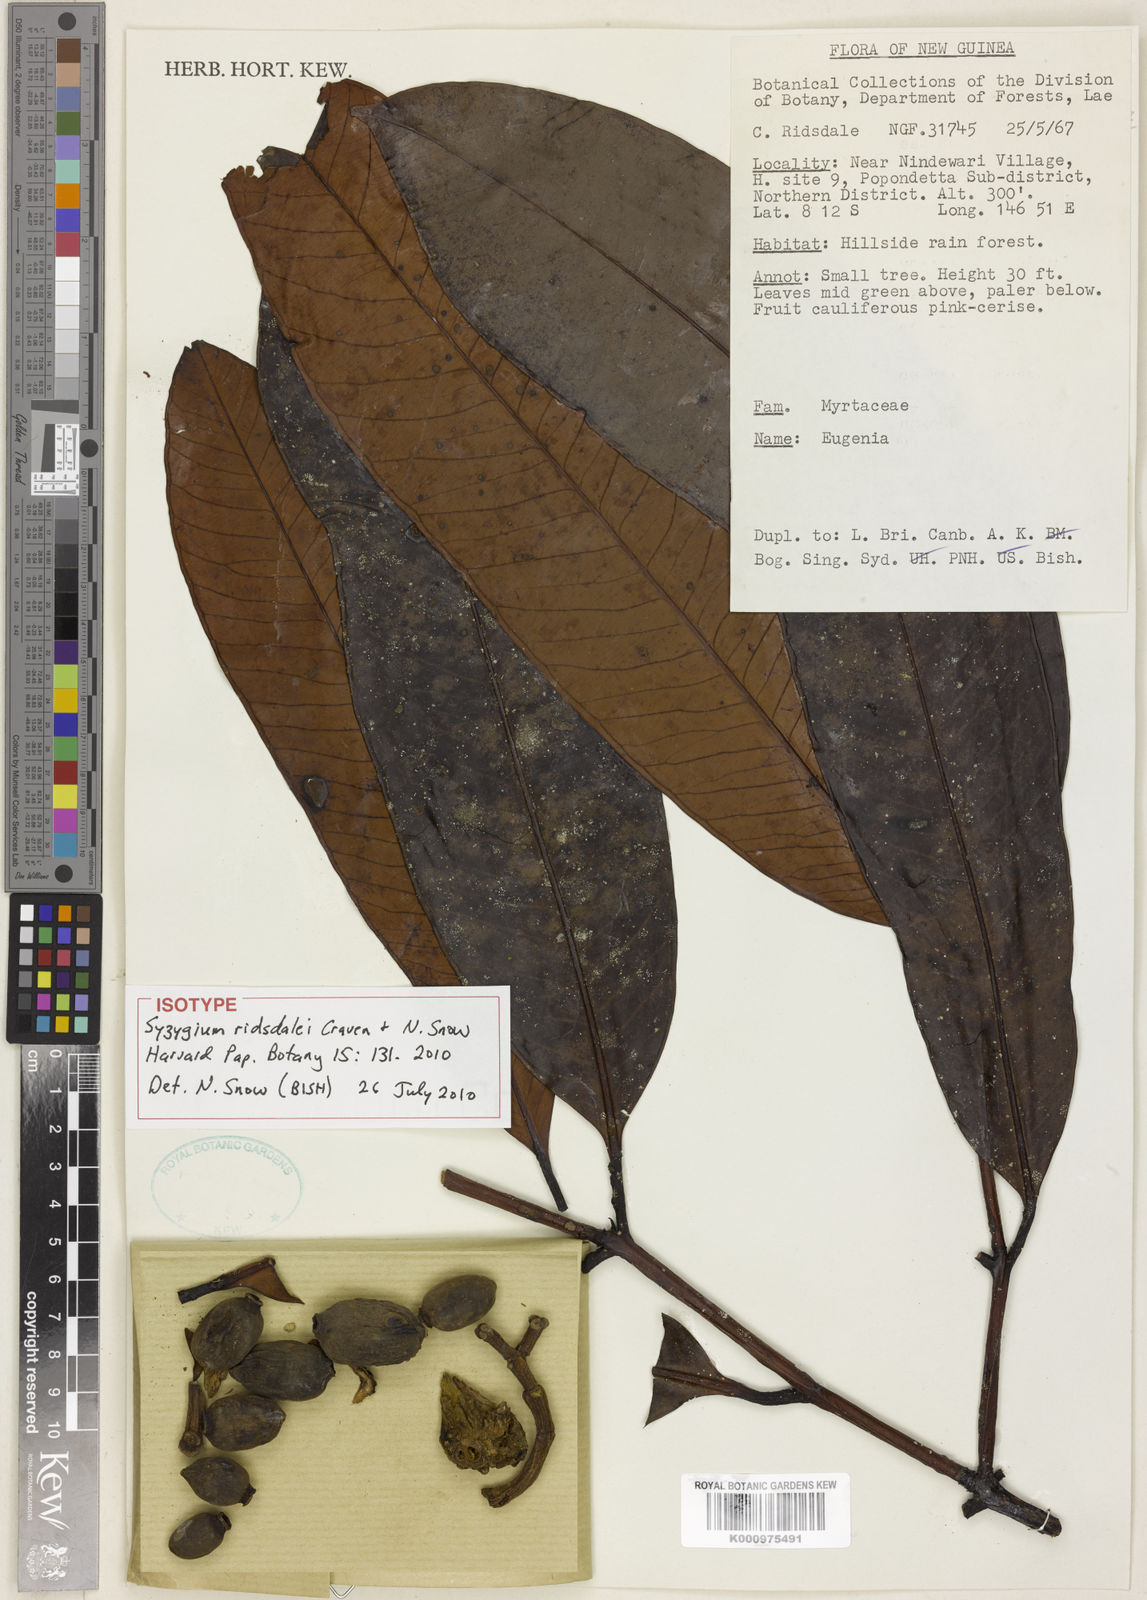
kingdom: Plantae
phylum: Tracheophyta
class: Magnoliopsida
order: Myrtales
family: Myrtaceae
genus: Syzygium
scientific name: Syzygium ridsdalei
